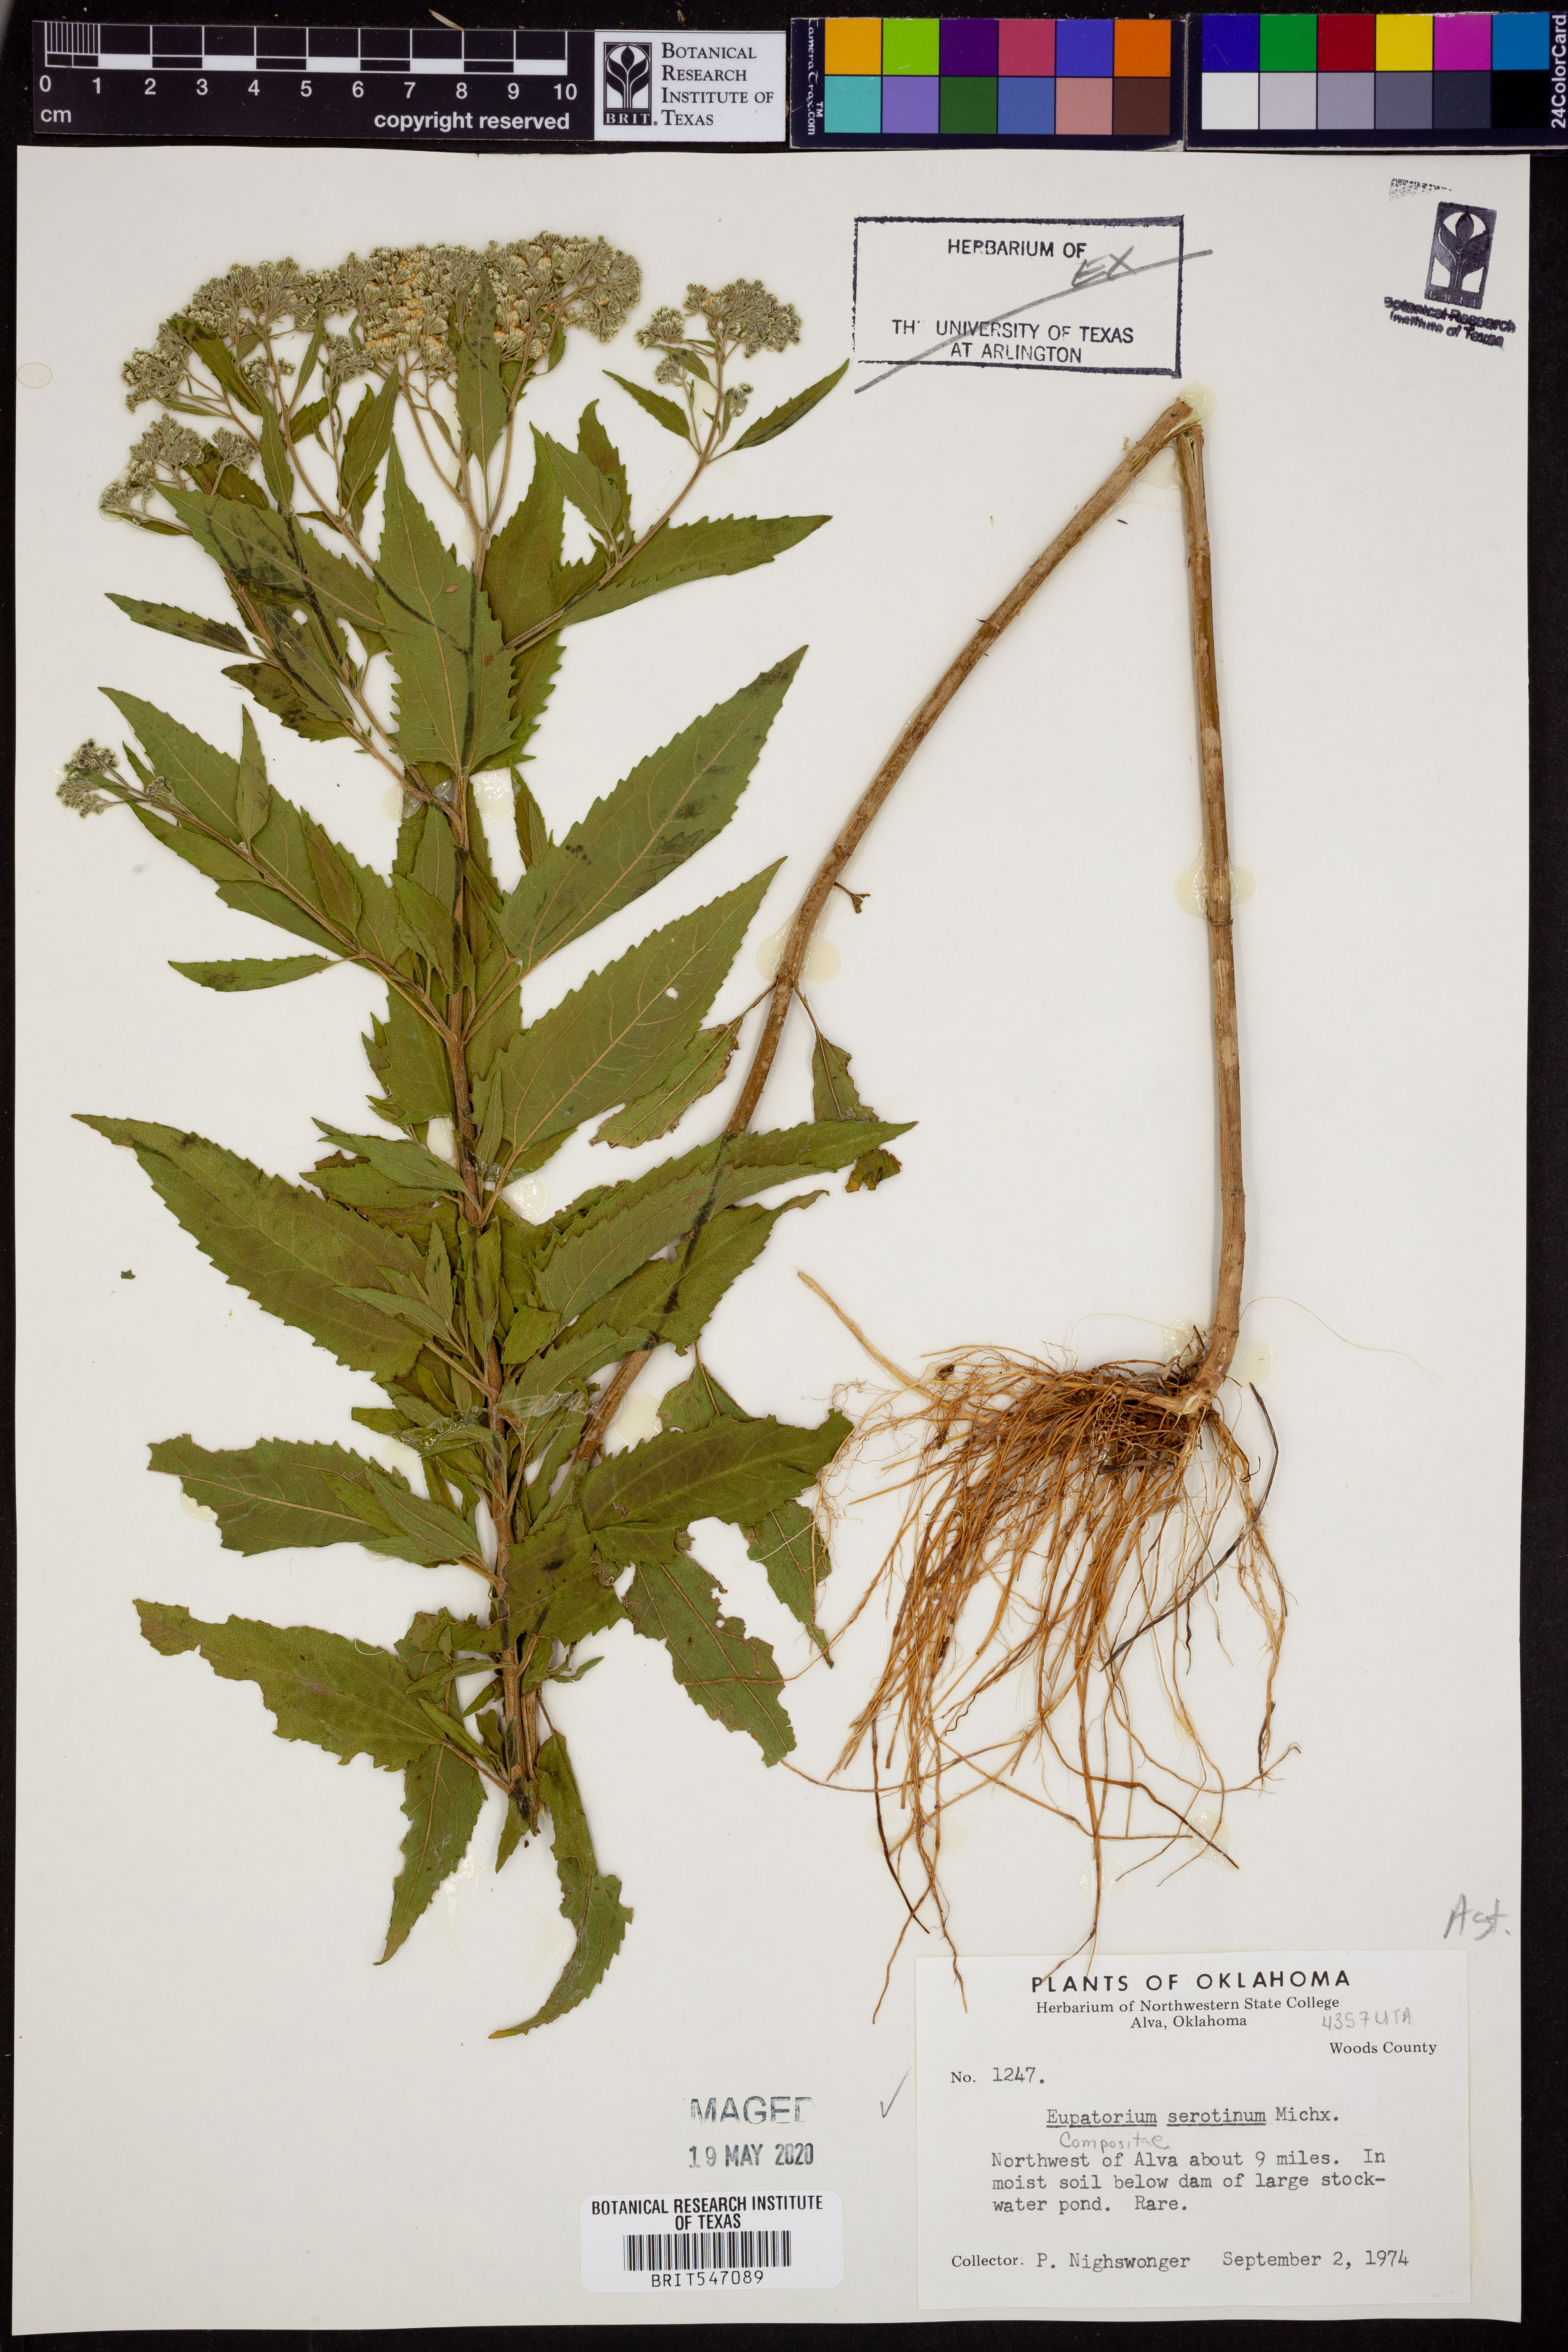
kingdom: Plantae
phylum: Tracheophyta
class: Magnoliopsida
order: Asterales
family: Asteraceae
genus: Eupatorium
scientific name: Eupatorium serotinum
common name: Late boneset
